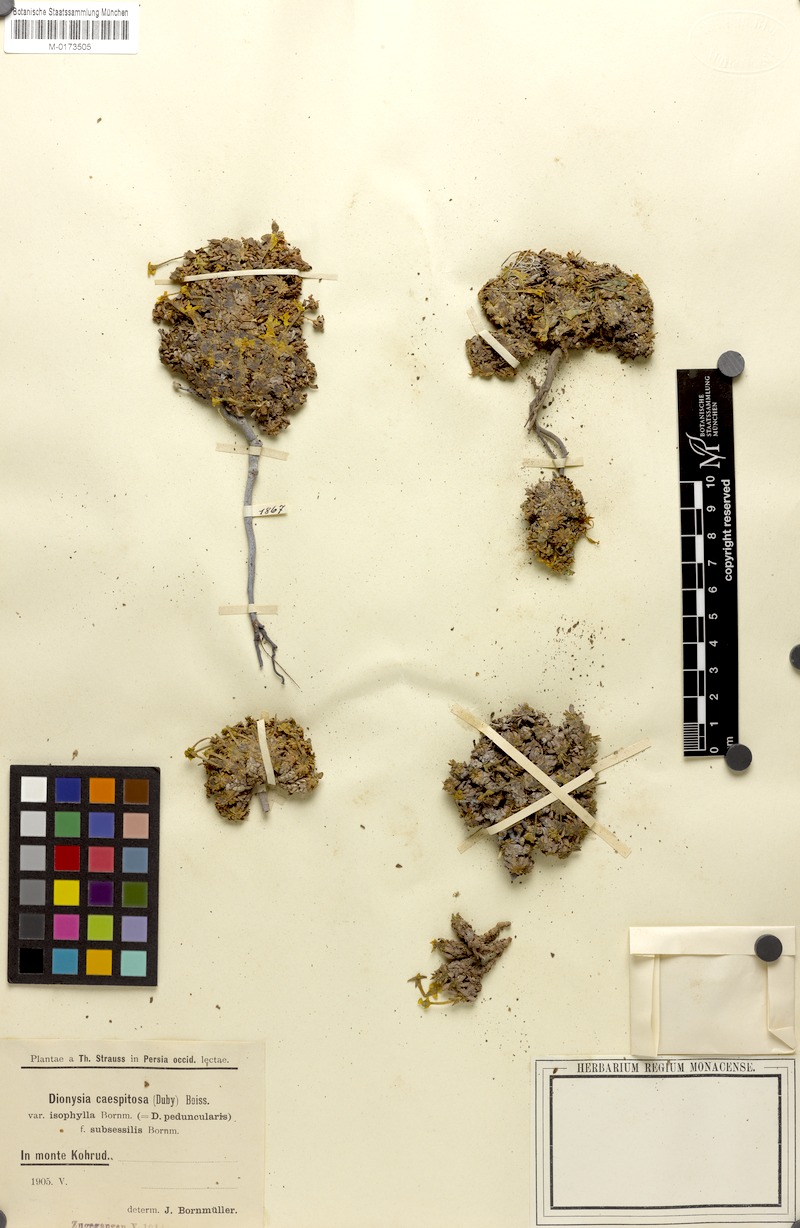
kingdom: Plantae
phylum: Tracheophyta
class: Magnoliopsida
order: Ericales
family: Primulaceae
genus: Dionysia
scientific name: Dionysia caespitosa
